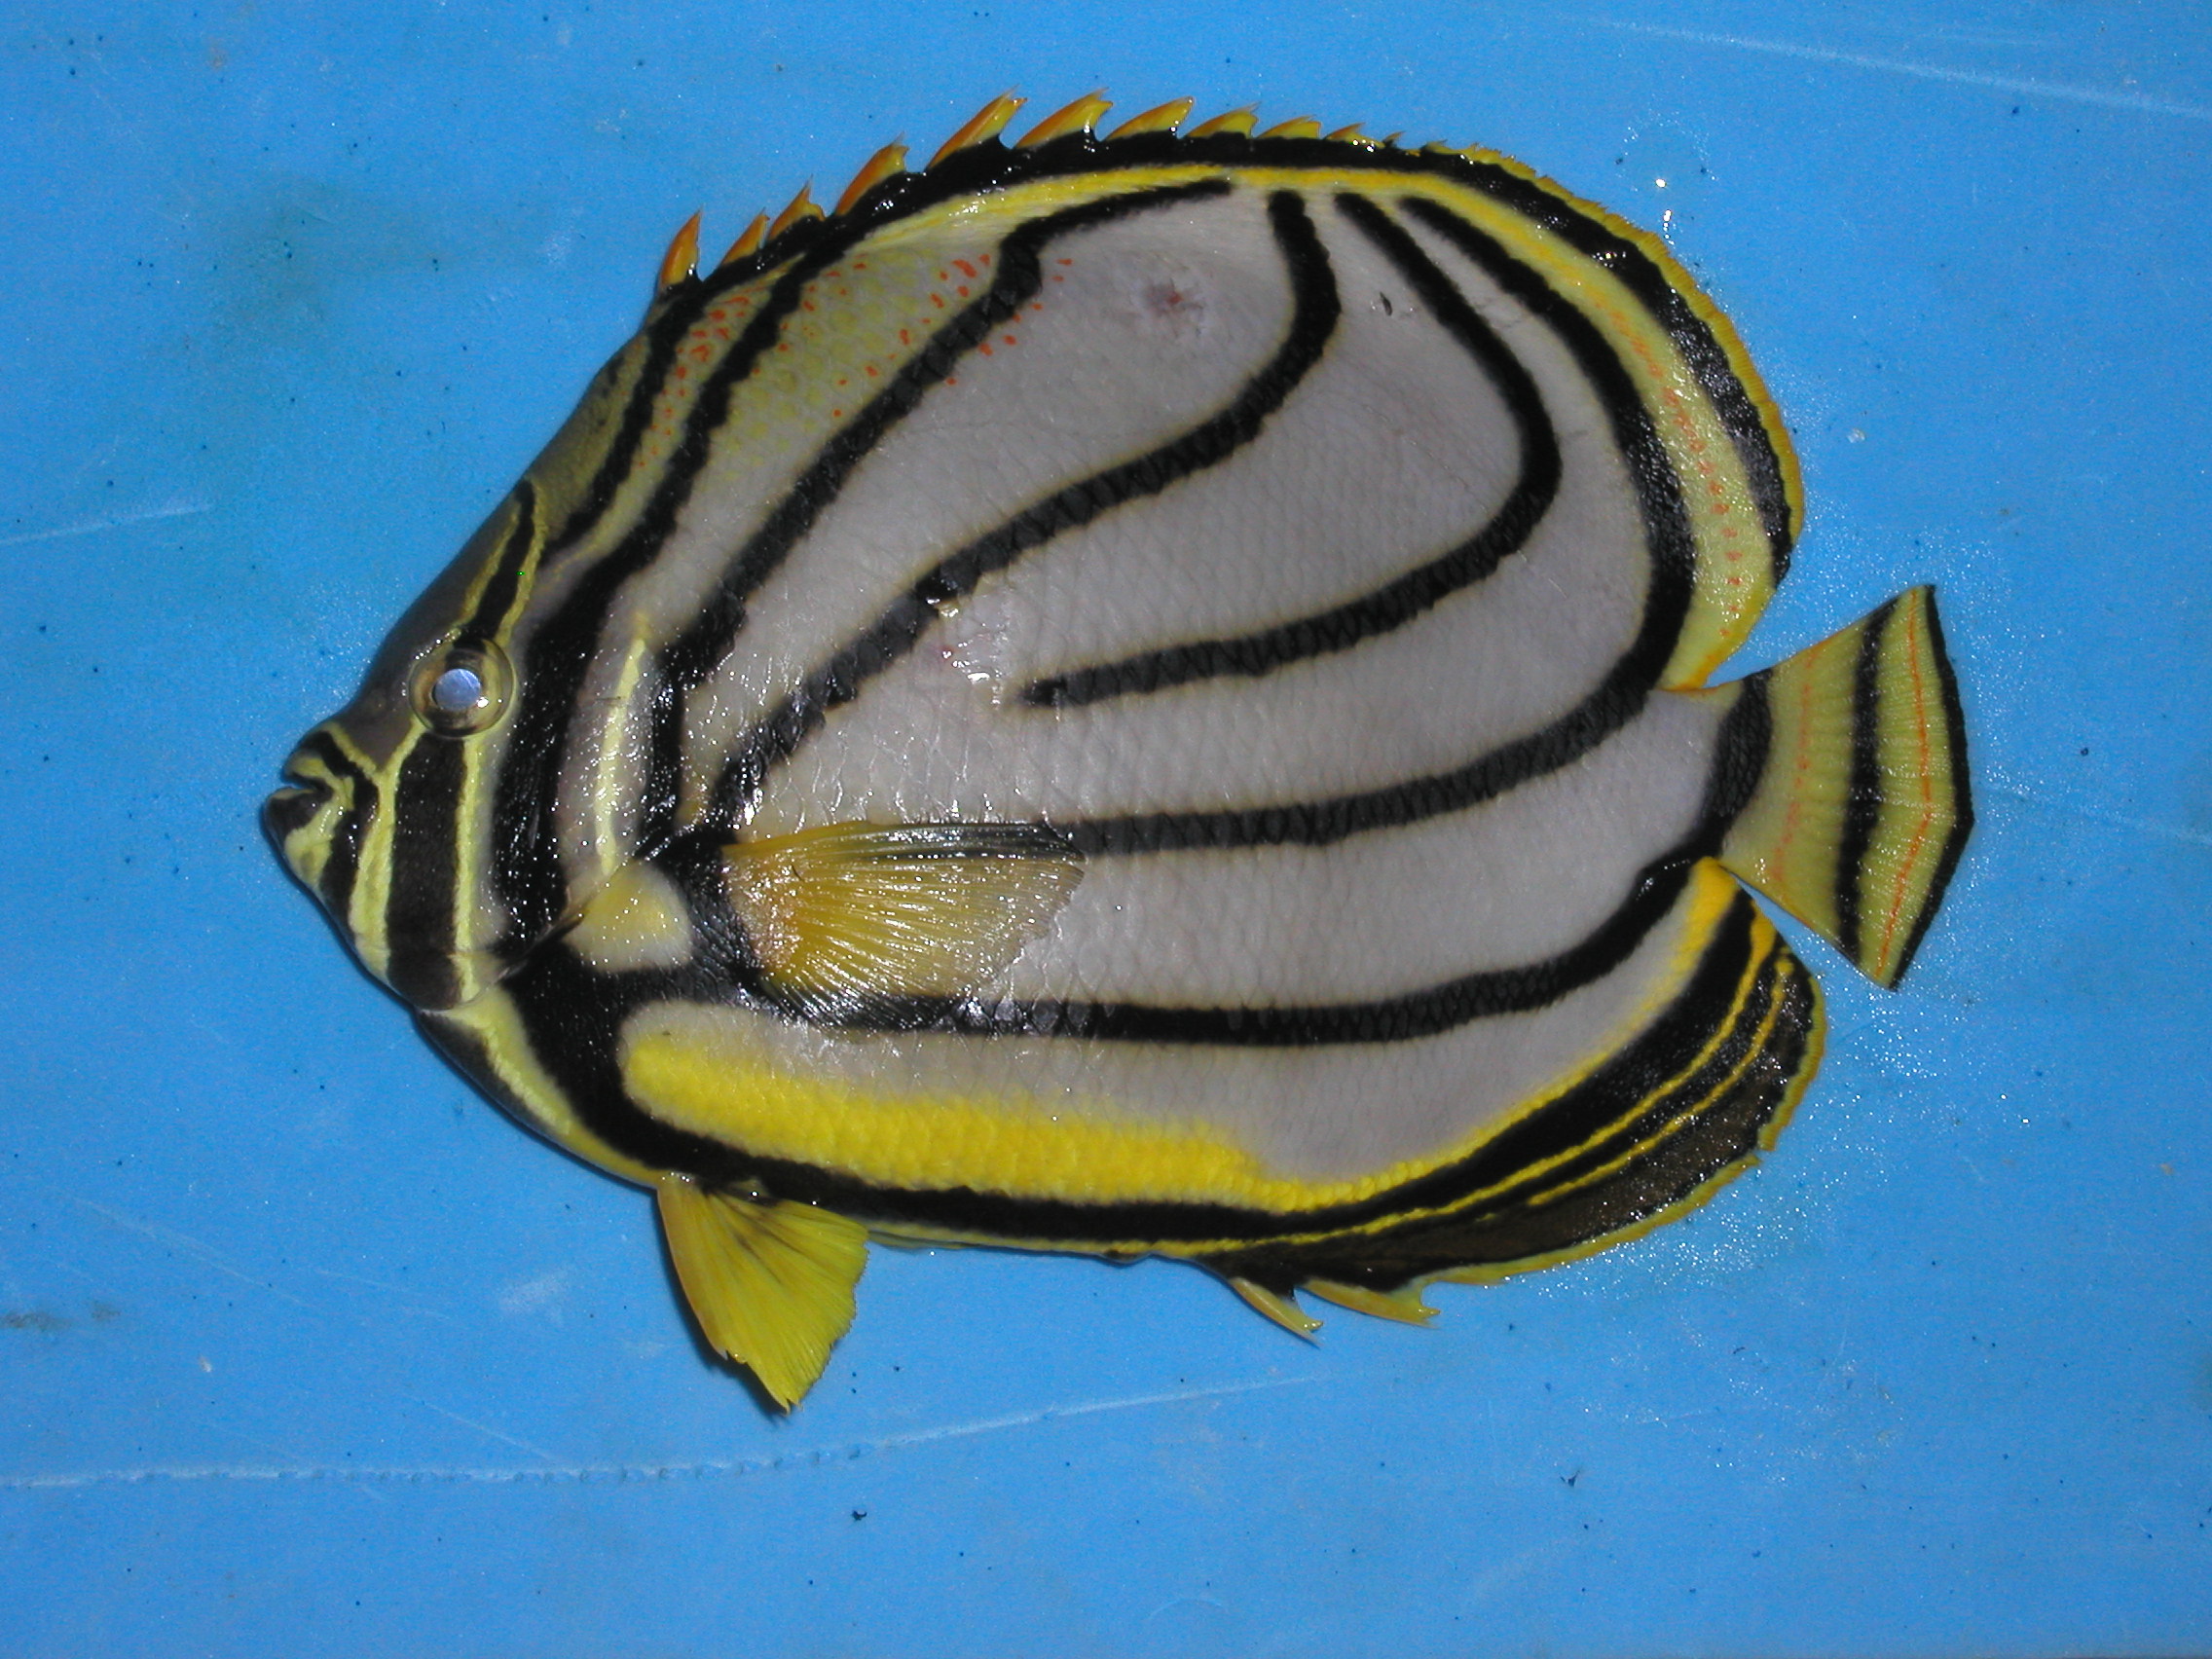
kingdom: Animalia
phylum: Chordata
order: Perciformes
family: Chaetodontidae
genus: Chaetodon
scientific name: Chaetodon meyeri
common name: Meyer's butterflyfish
